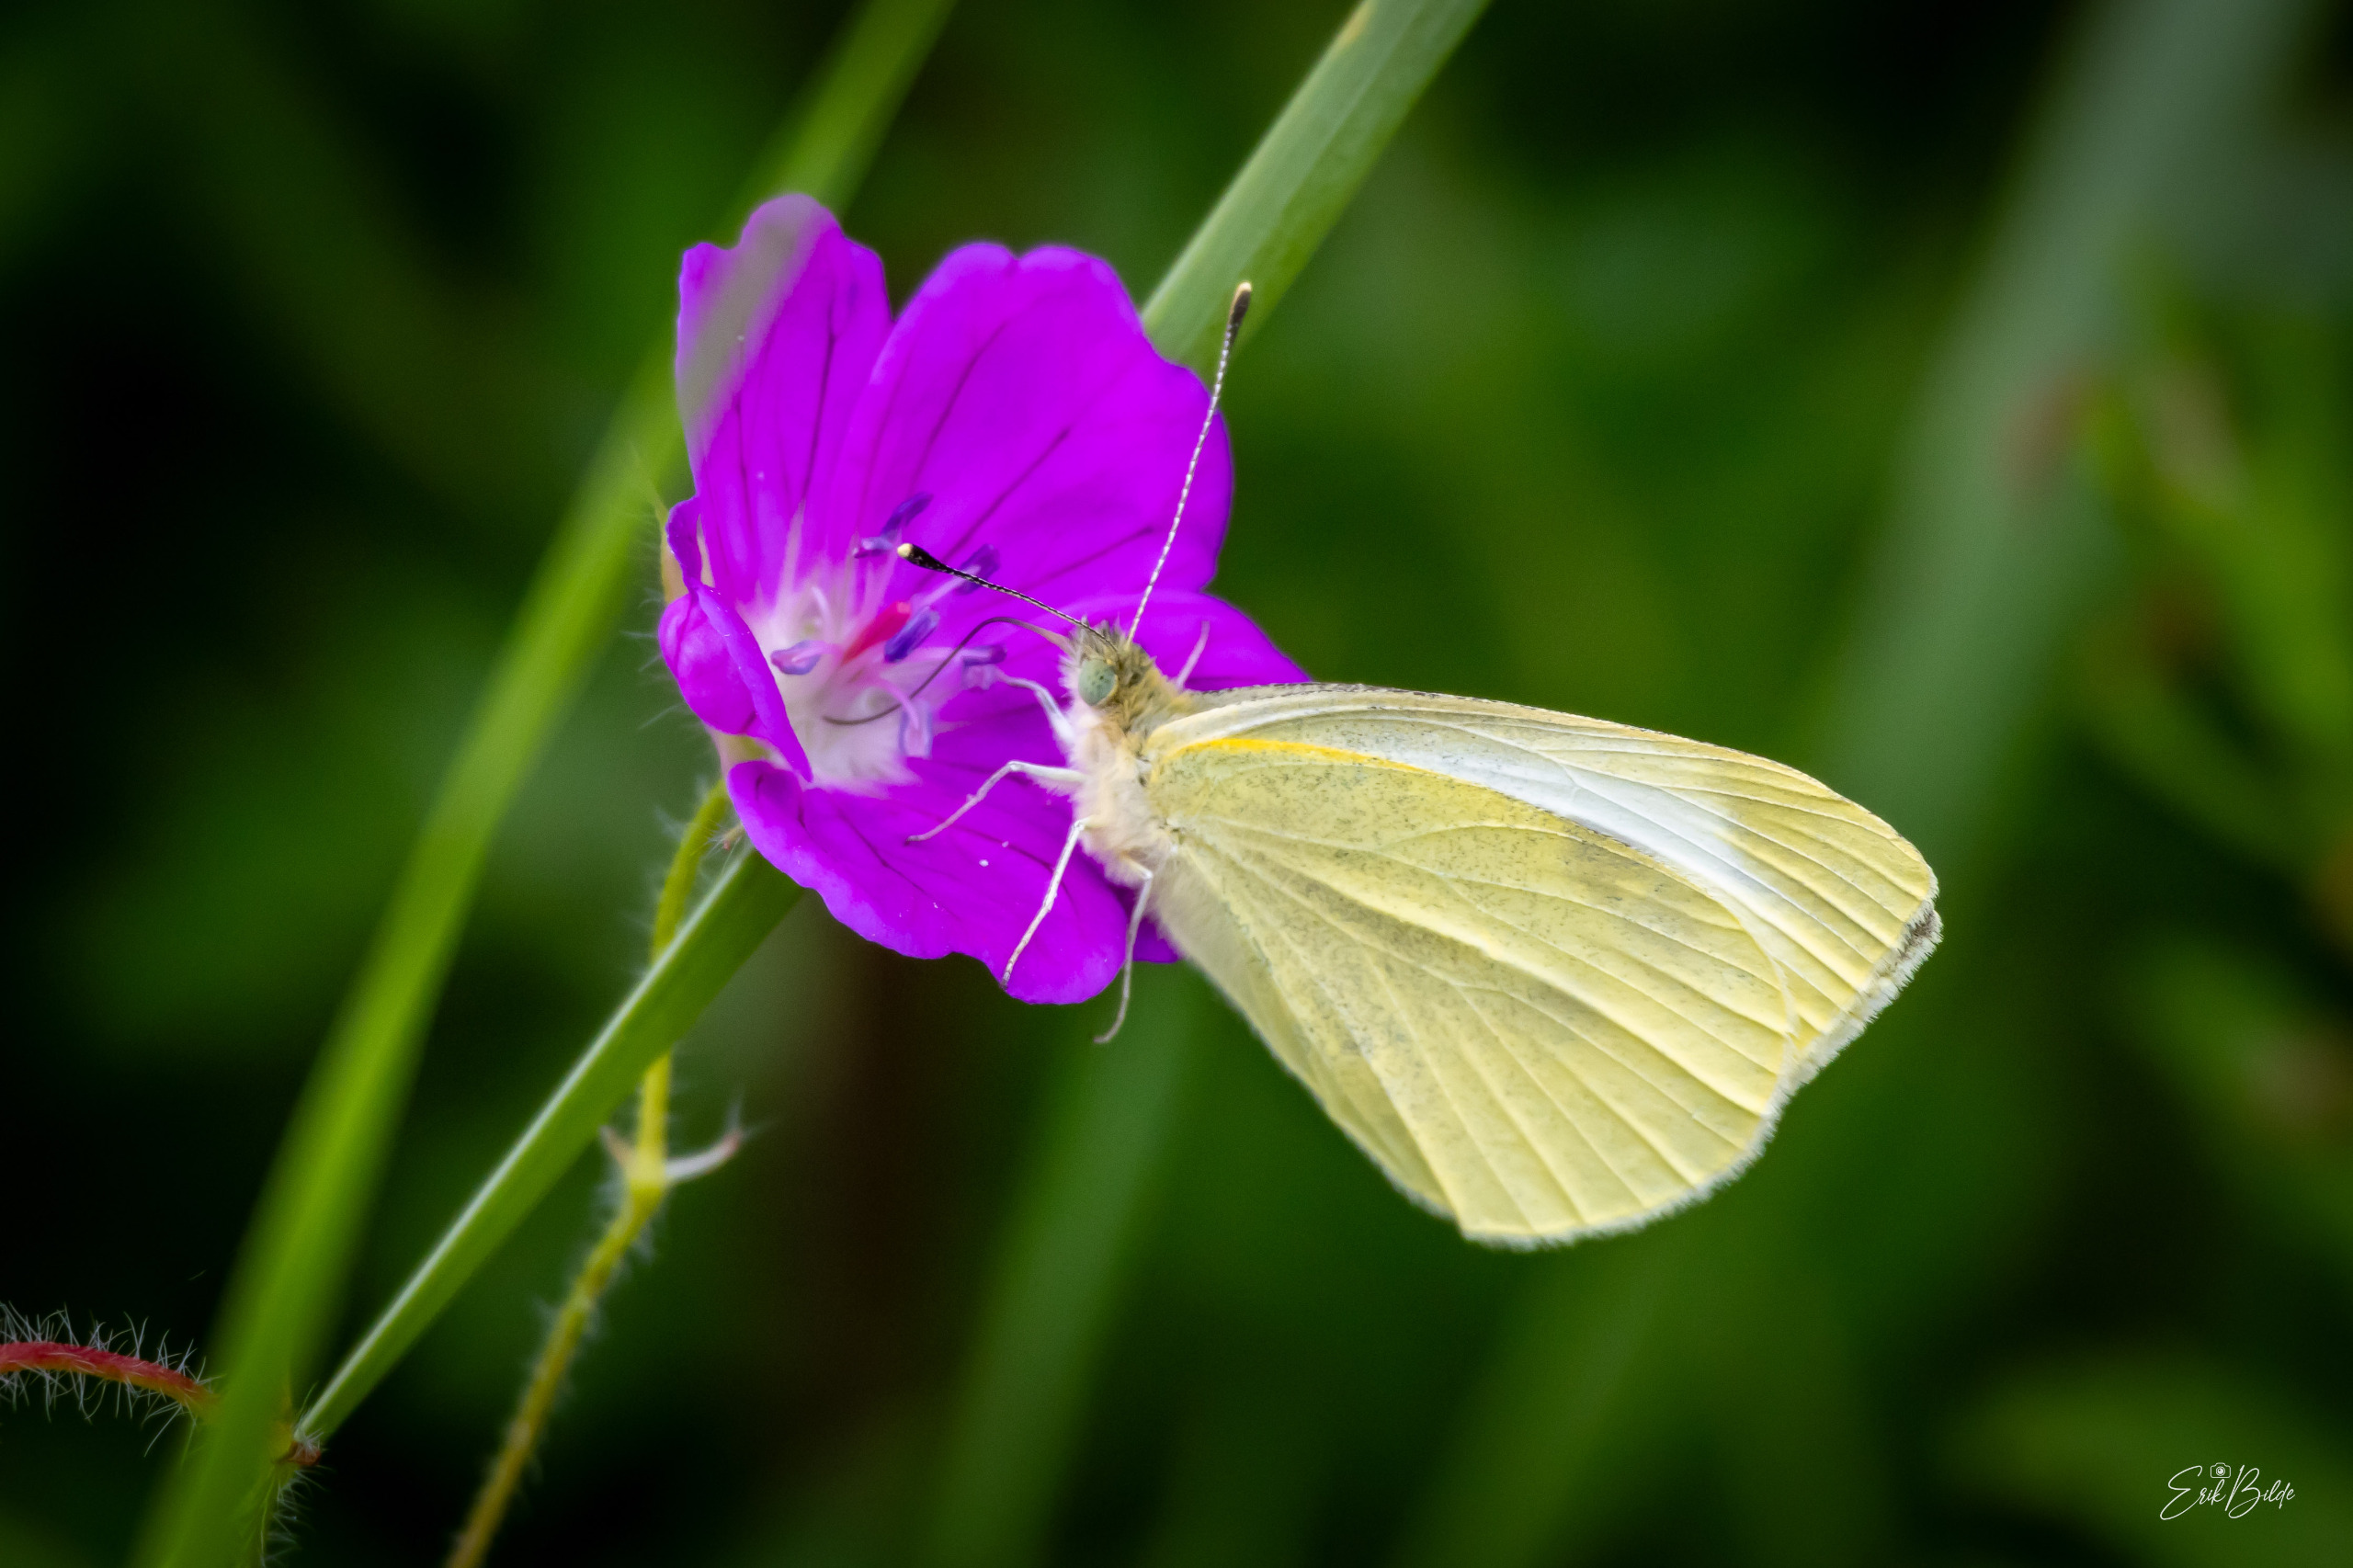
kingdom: Animalia
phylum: Arthropoda
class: Insecta
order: Lepidoptera
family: Pieridae
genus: Pieris
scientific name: Pieris rapae
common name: Lille kålsommerfugl
